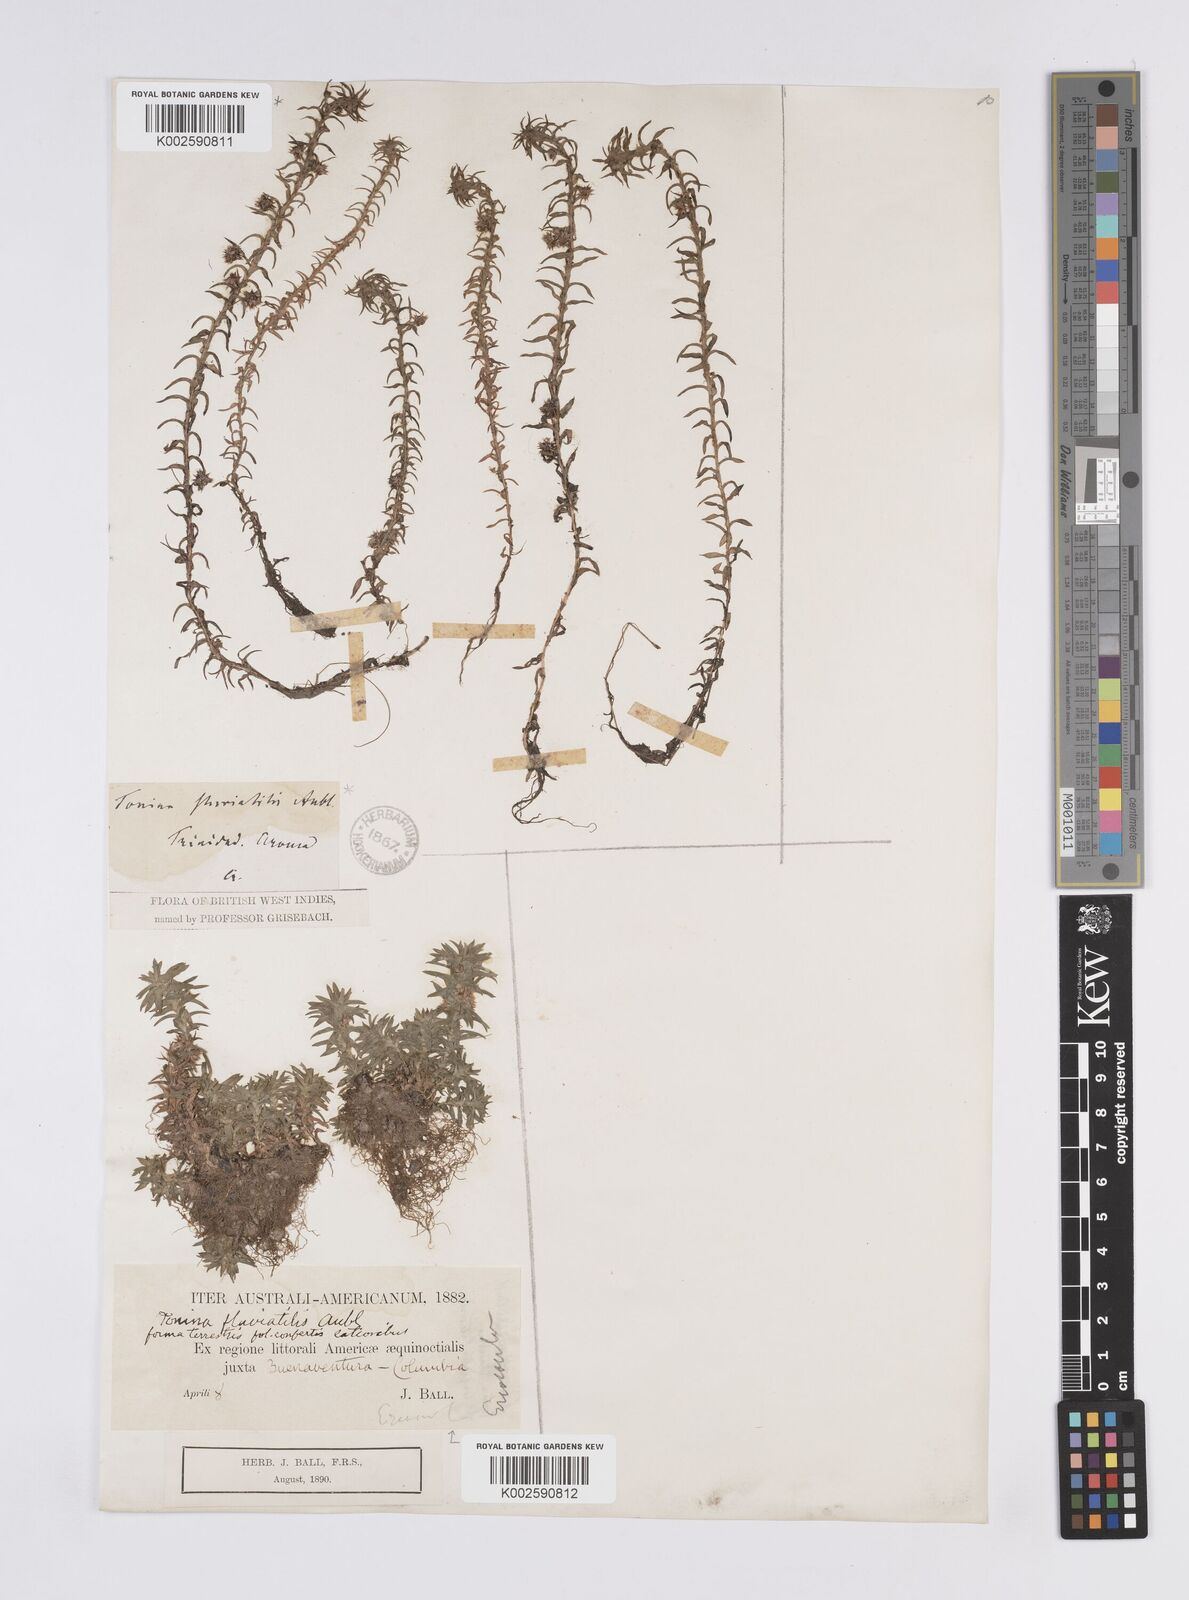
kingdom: Plantae
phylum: Tracheophyta
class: Liliopsida
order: Poales
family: Eriocaulaceae
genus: Paepalanthus
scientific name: Paepalanthus fluviatilis
